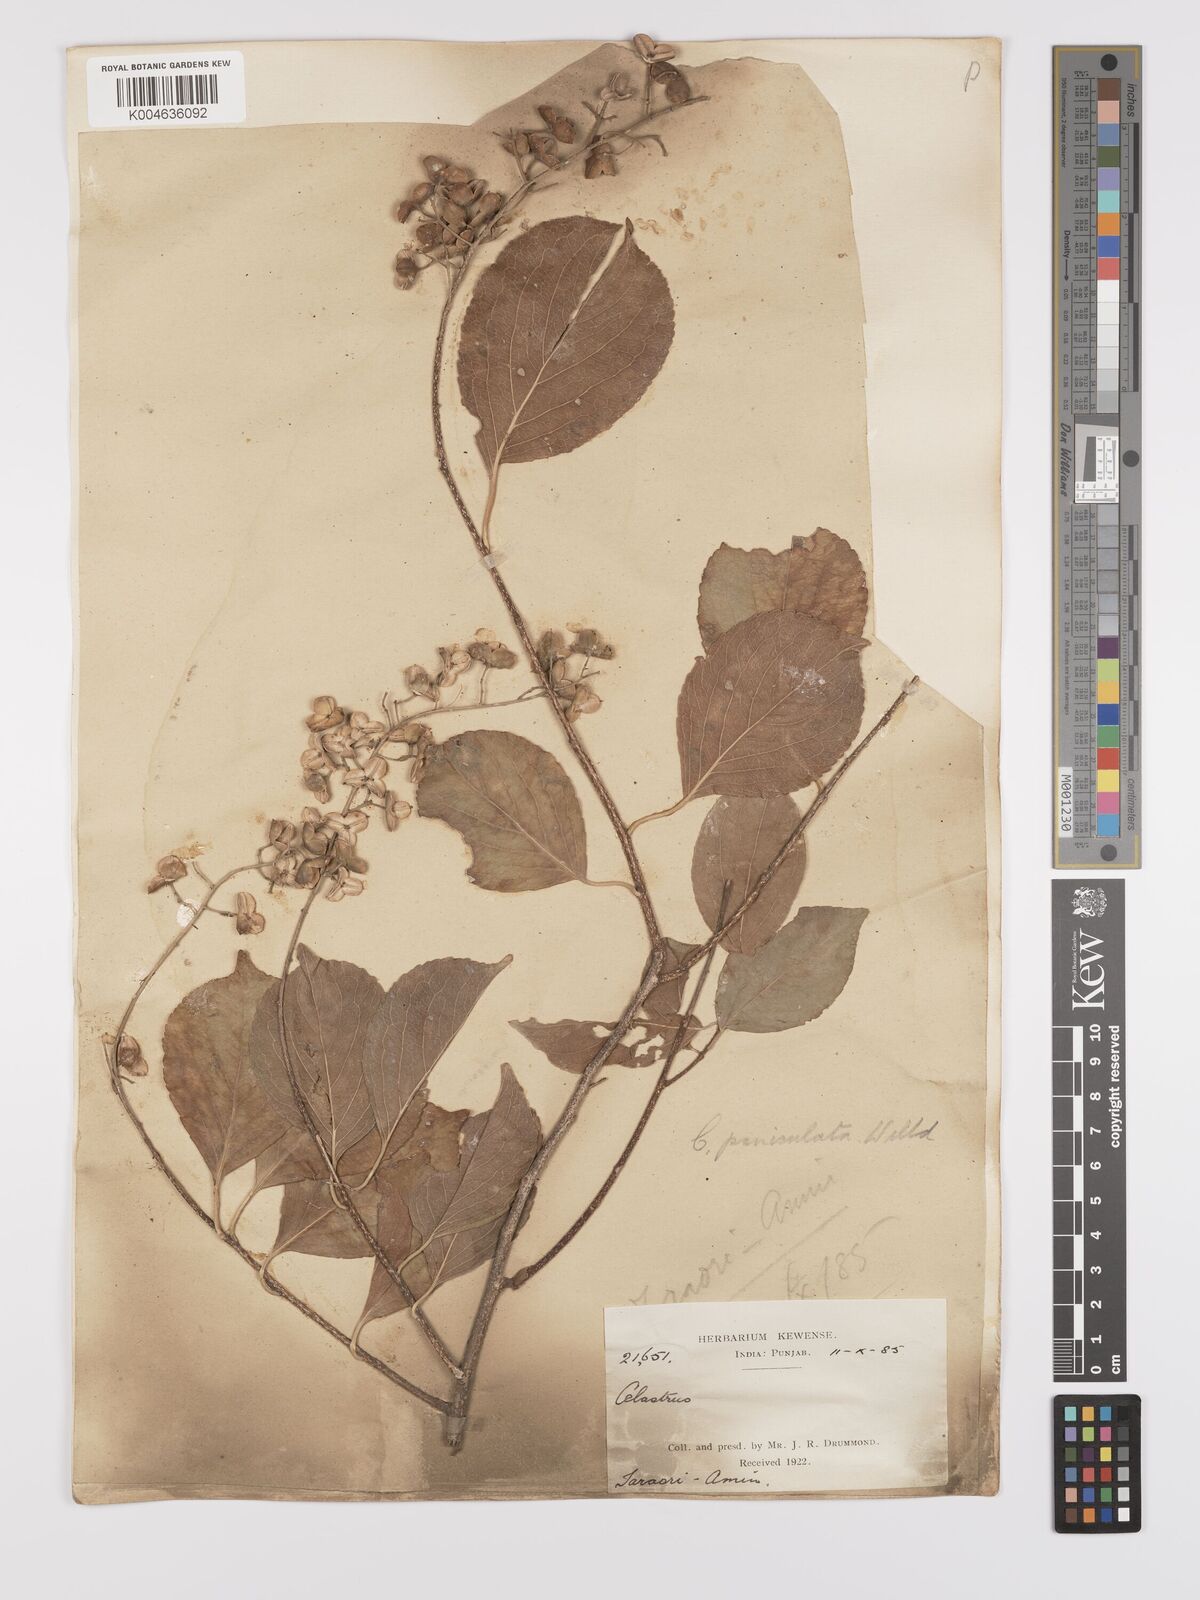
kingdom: Plantae
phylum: Tracheophyta
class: Magnoliopsida
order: Celastrales
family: Celastraceae
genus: Celastrus
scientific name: Celastrus paniculatus
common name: Oriental bittersweet; staff vine
